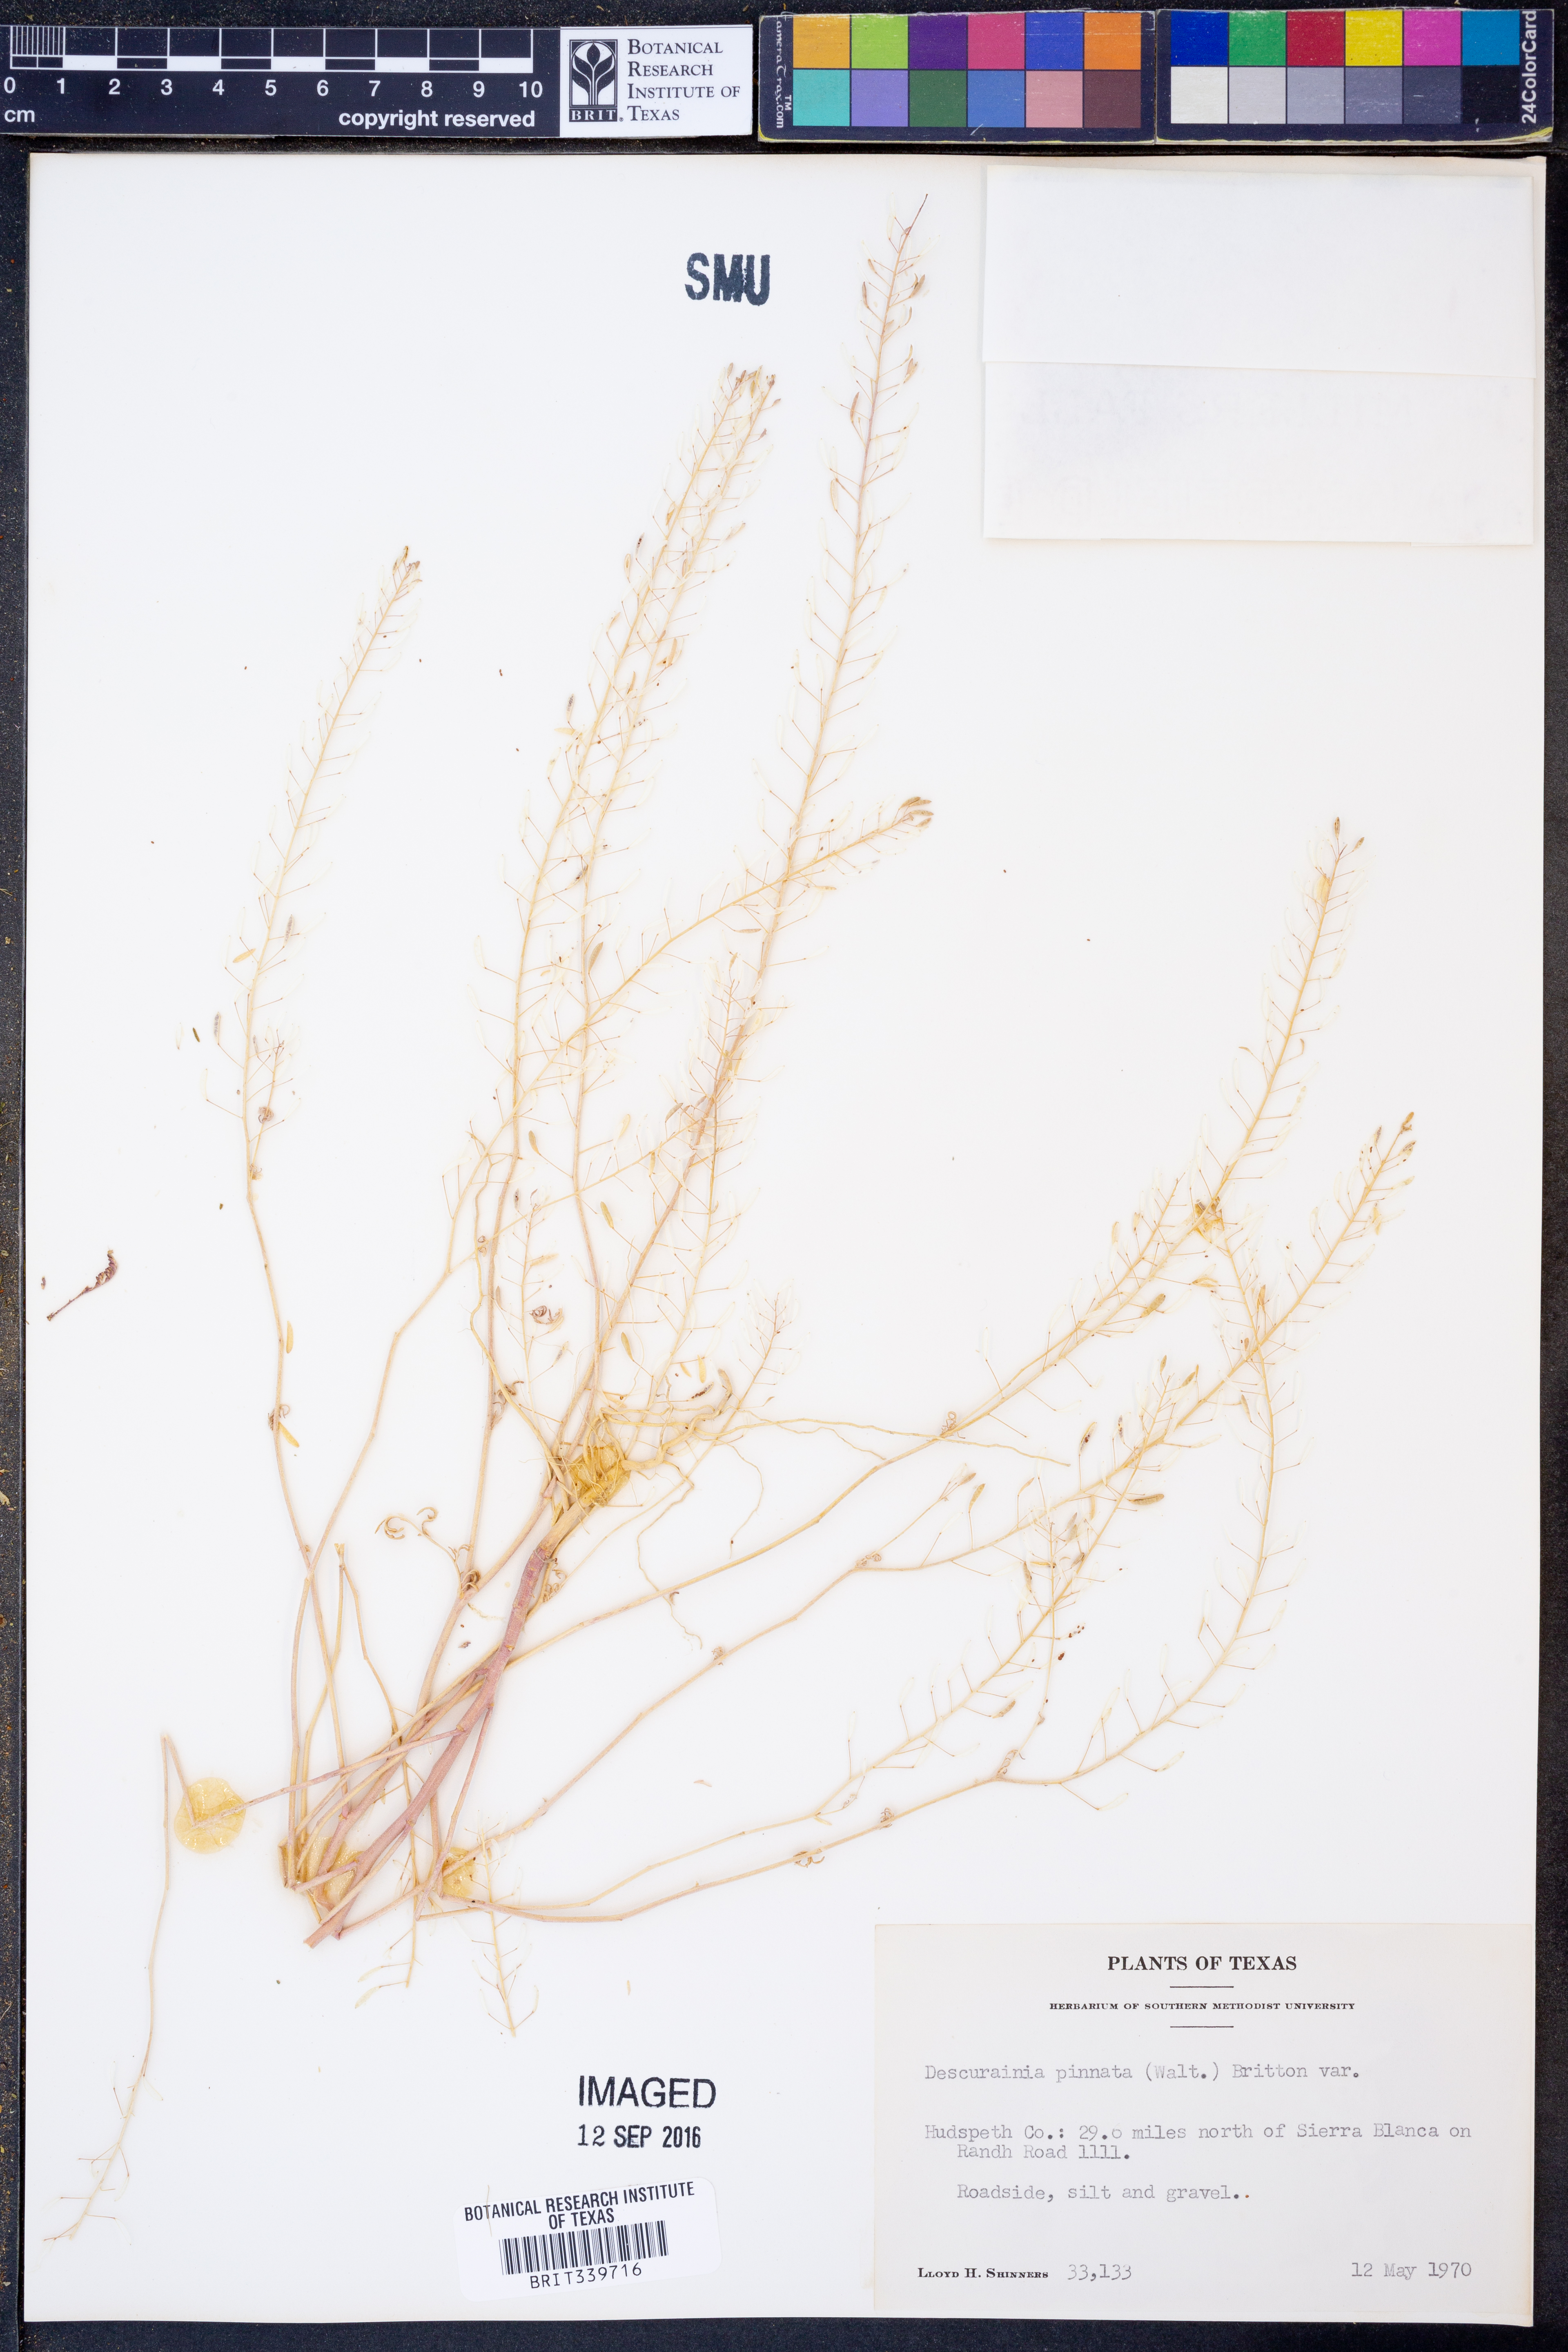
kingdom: Plantae
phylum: Tracheophyta
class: Magnoliopsida
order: Brassicales
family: Brassicaceae
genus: Descurainia
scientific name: Descurainia pinnata
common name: Western tansy mustard
